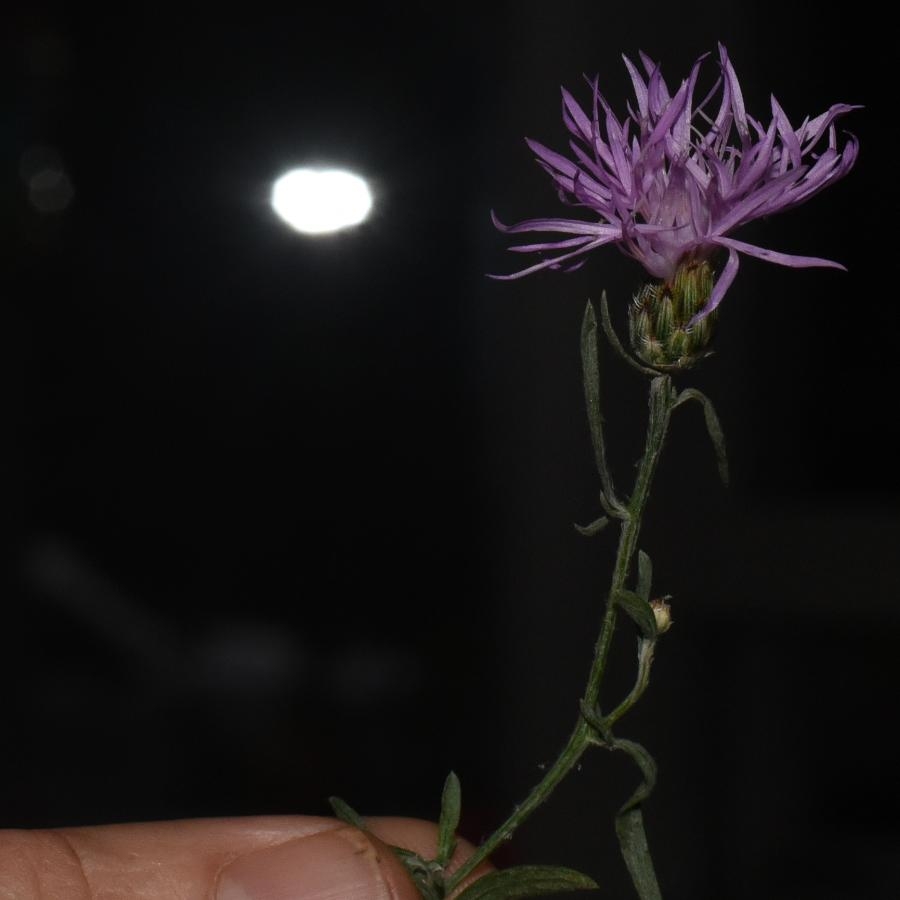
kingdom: Plantae
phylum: Tracheophyta
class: Magnoliopsida
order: Asterales
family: Asteraceae
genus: Centaurea
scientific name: Centaurea diffusa
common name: Spotted Knapweed
